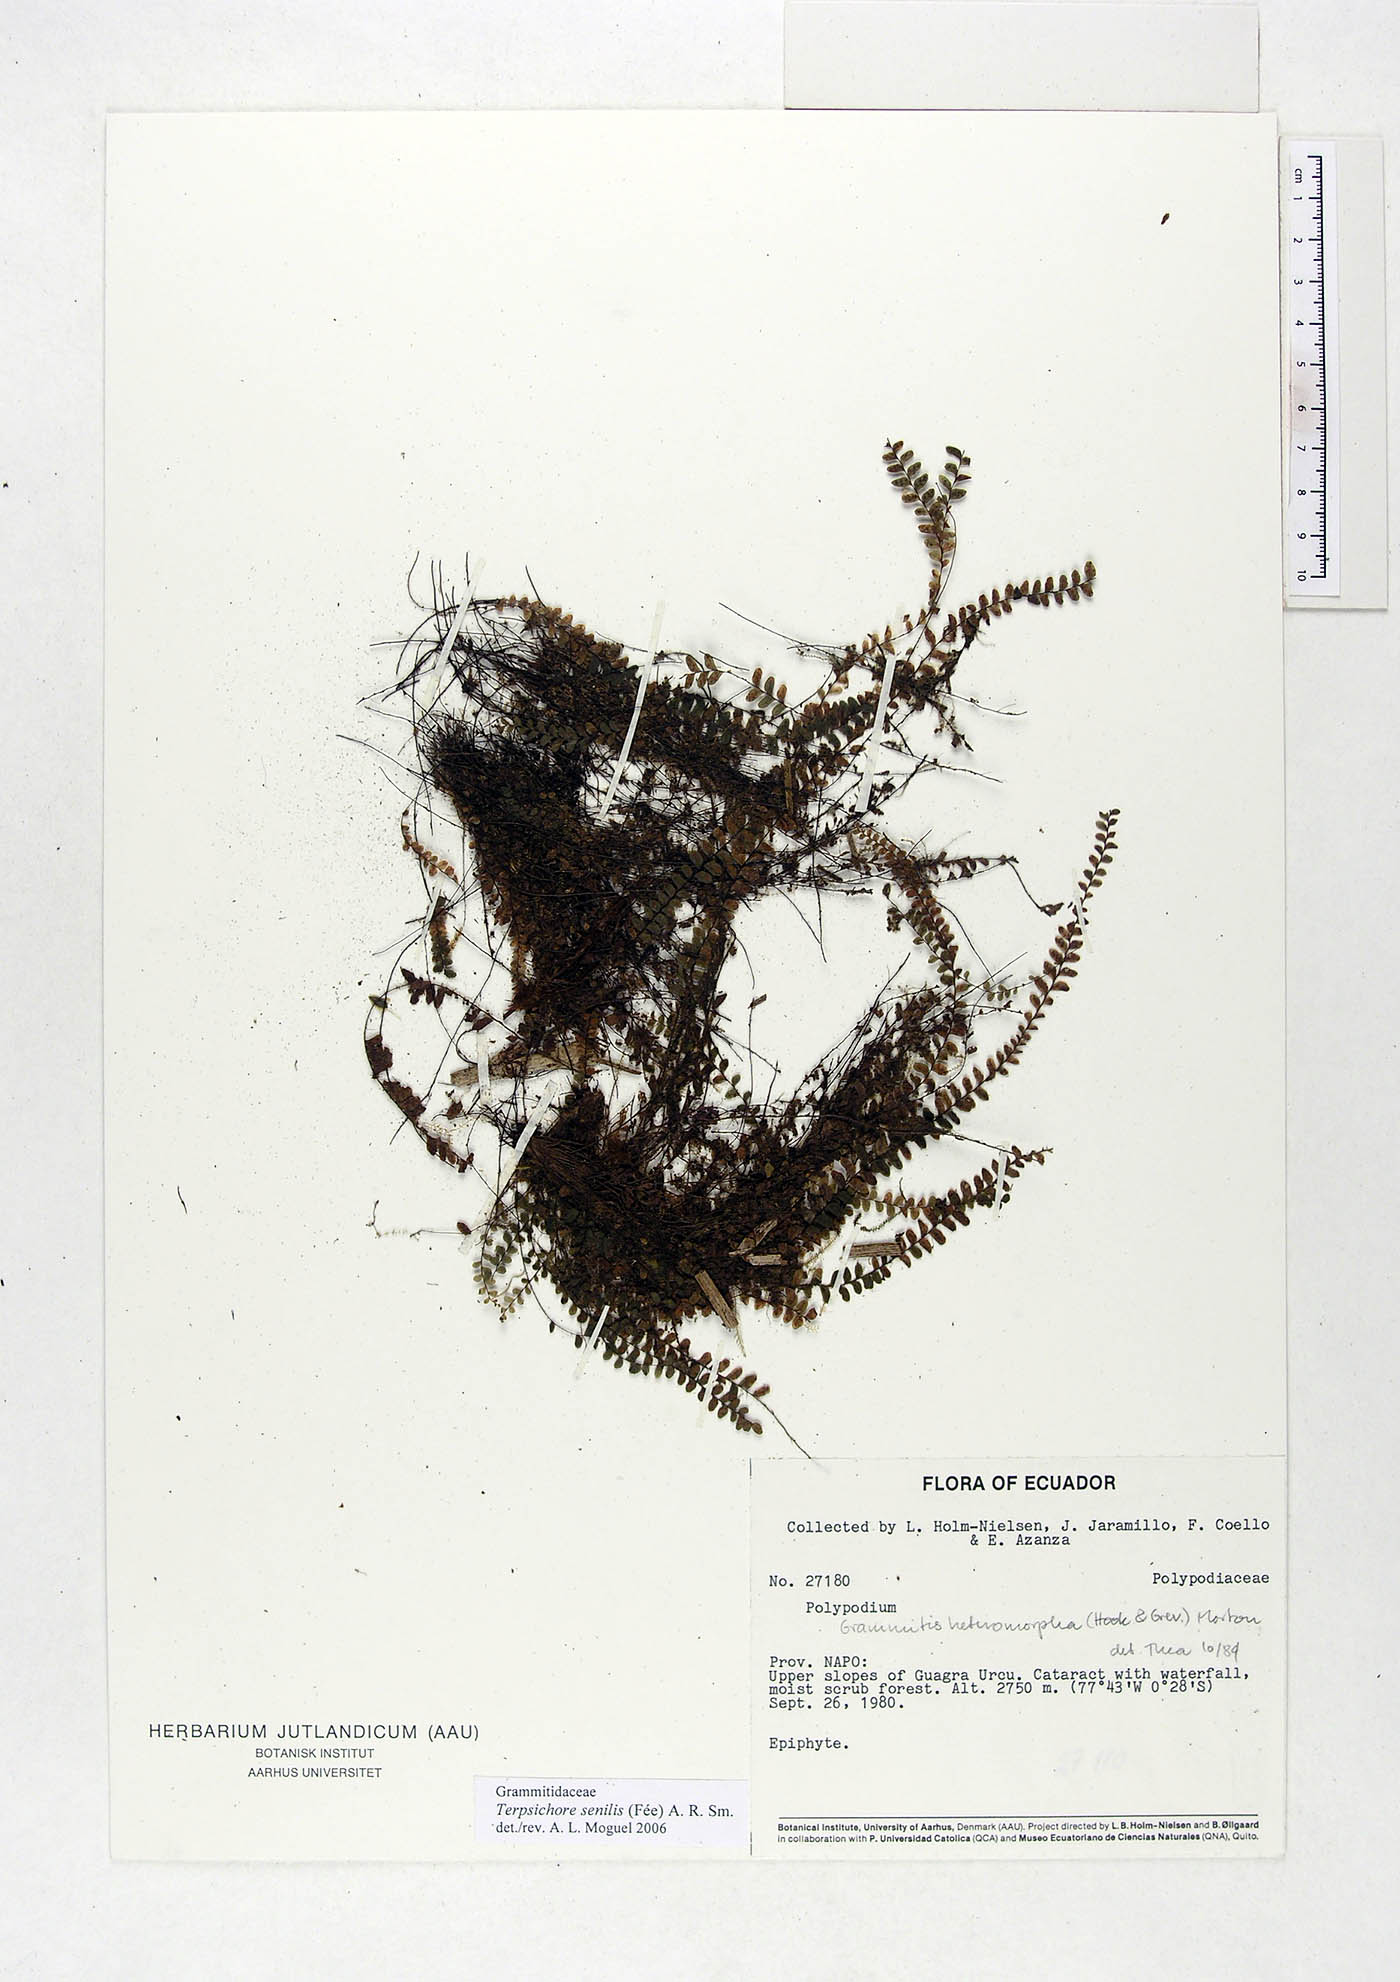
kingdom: Plantae
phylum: Tracheophyta
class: Polypodiopsida
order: Polypodiales
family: Polypodiaceae
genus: Alansmia
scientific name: Alansmia senilis
